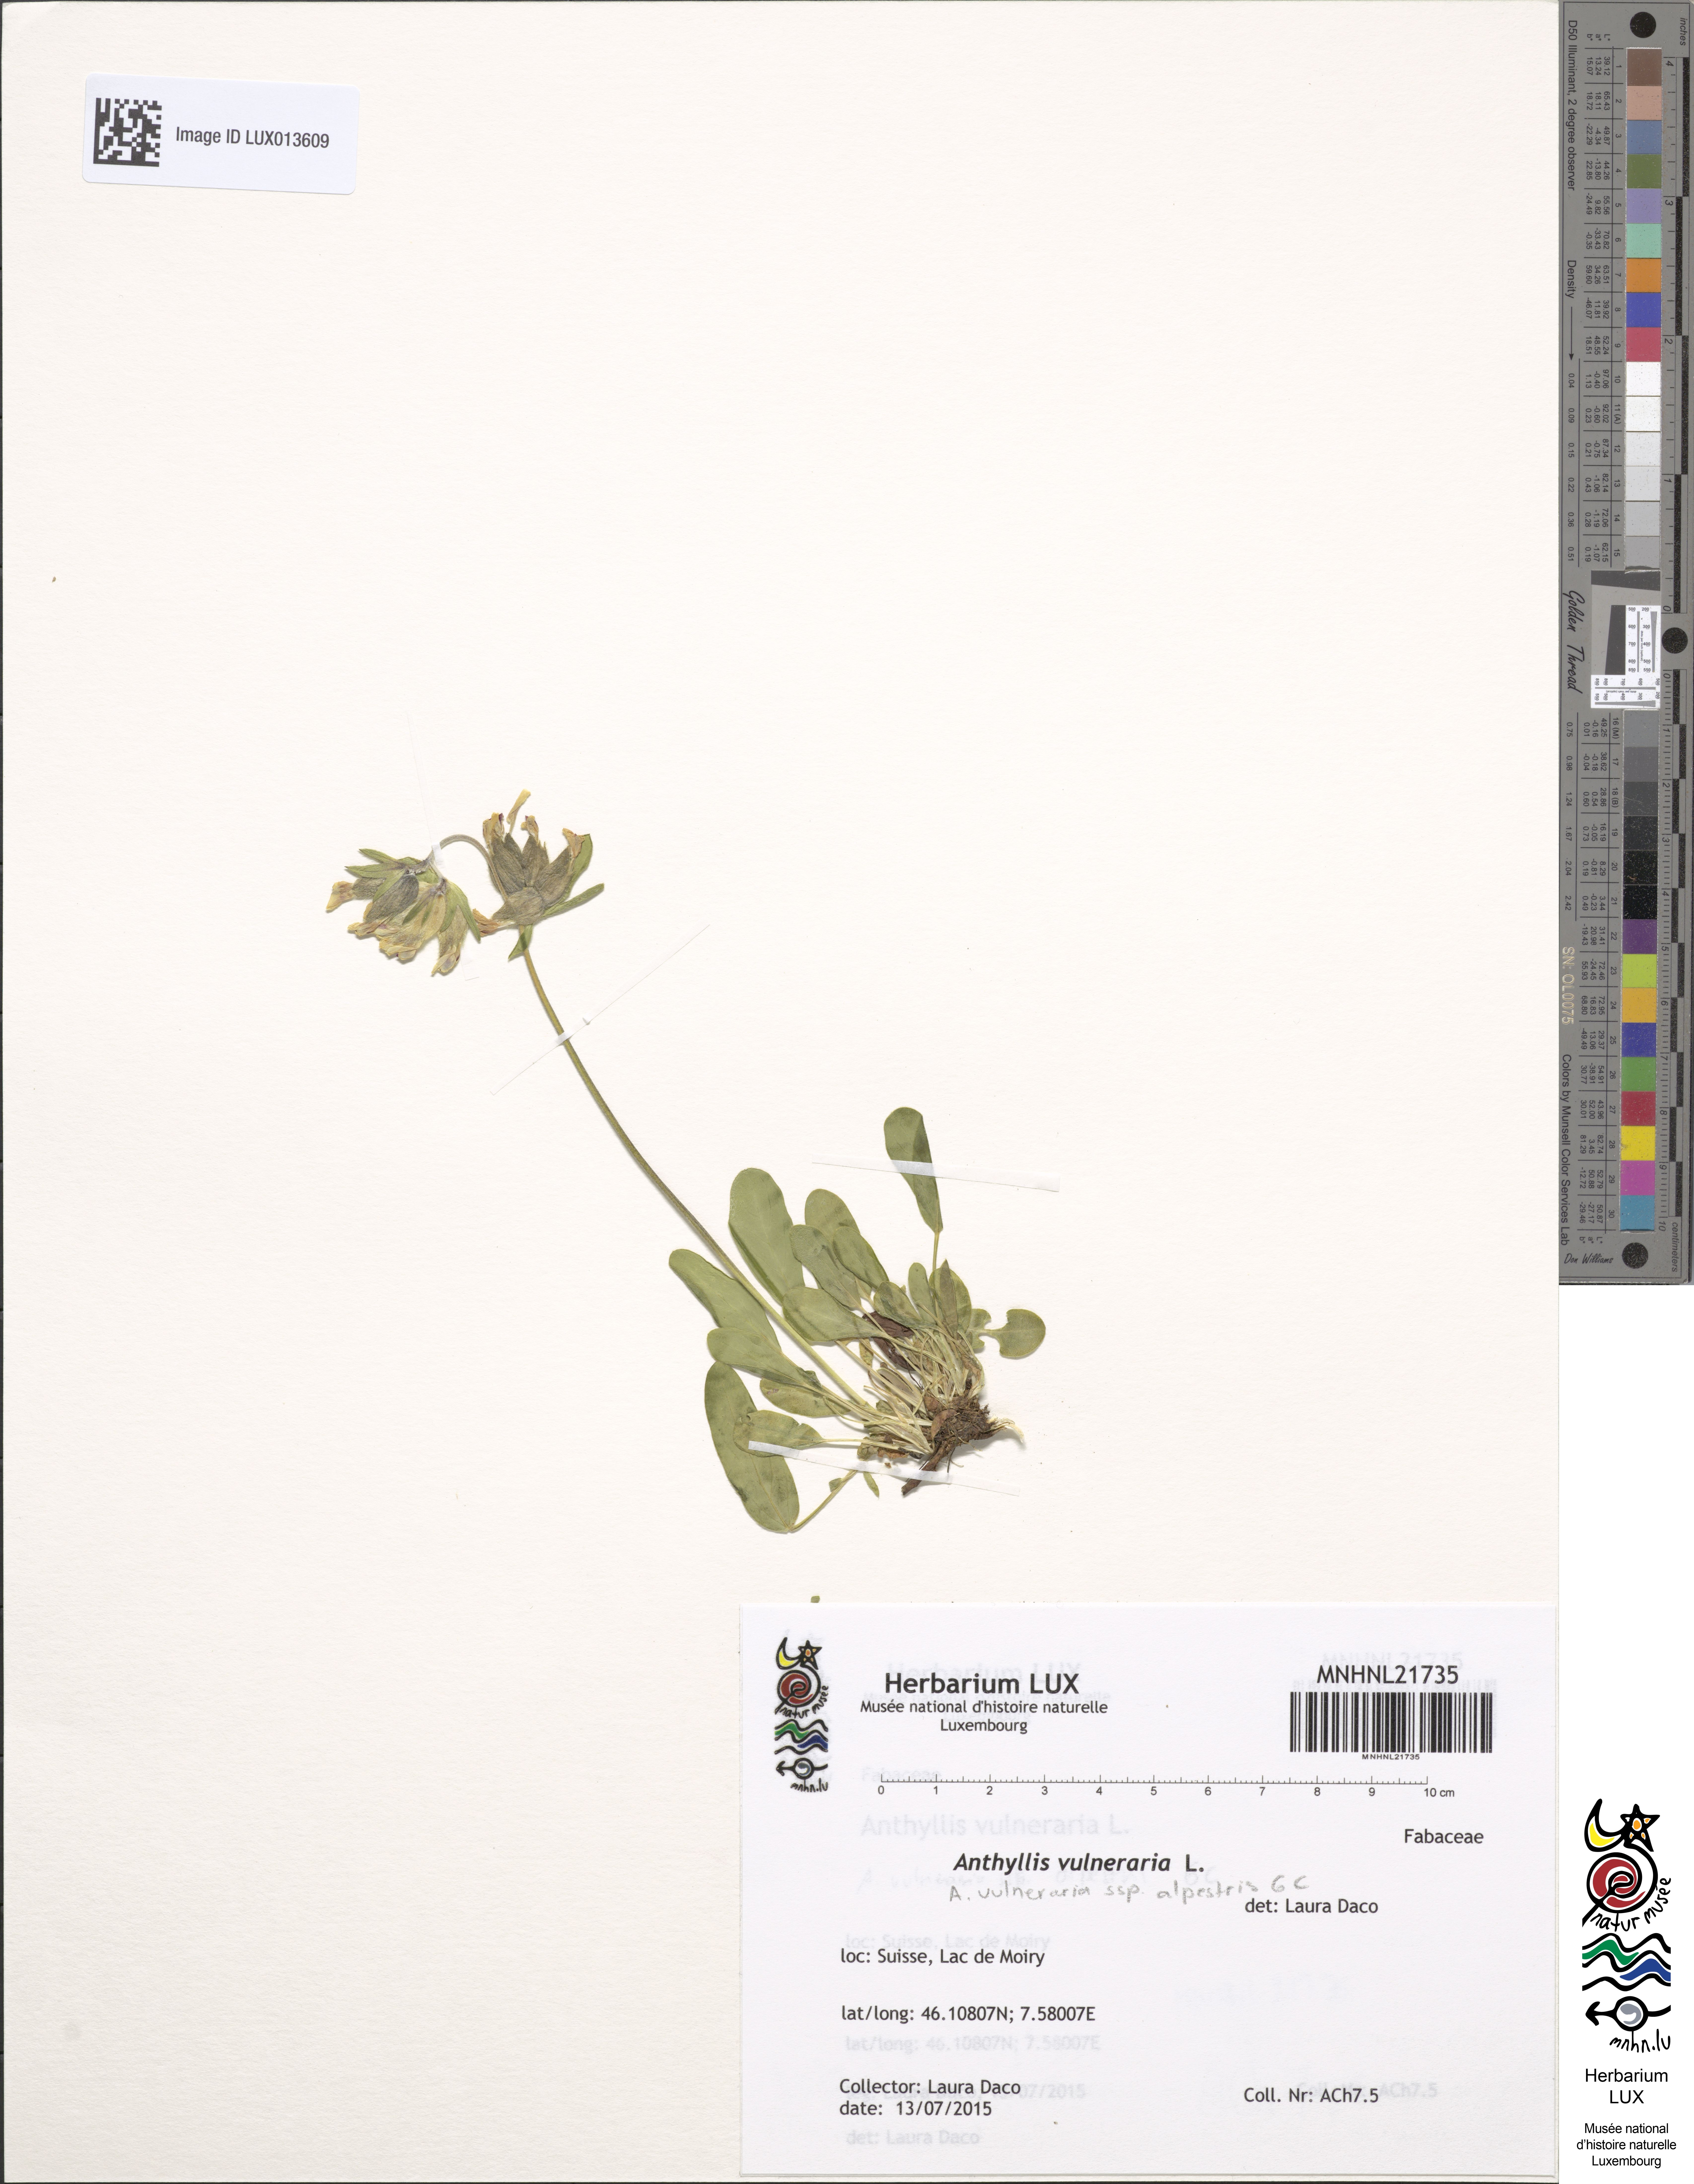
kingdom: Plantae
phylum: Tracheophyta
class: Magnoliopsida
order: Fabales
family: Fabaceae
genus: Anthyllis
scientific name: Anthyllis vulneraria
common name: Kidney vetch
